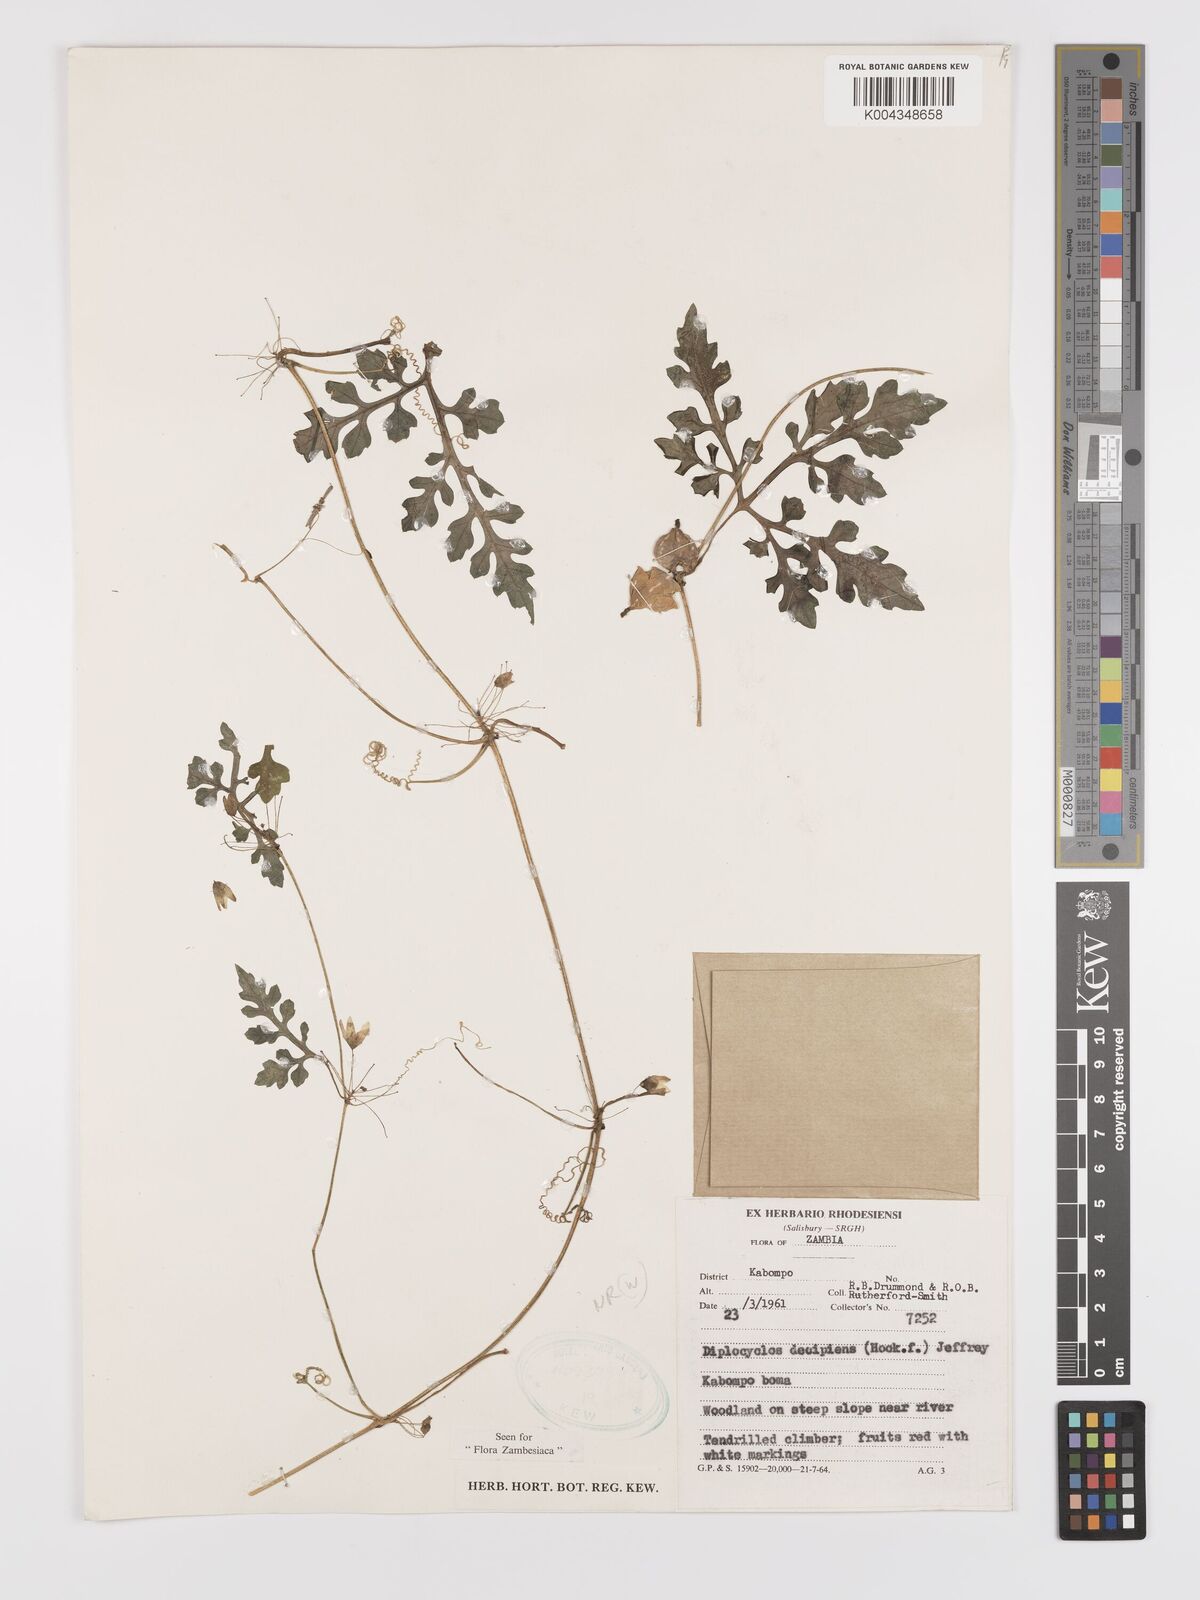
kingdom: Plantae
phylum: Tracheophyta
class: Magnoliopsida
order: Cucurbitales
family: Cucurbitaceae
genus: Diplocyclos
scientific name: Diplocyclos decipiens
